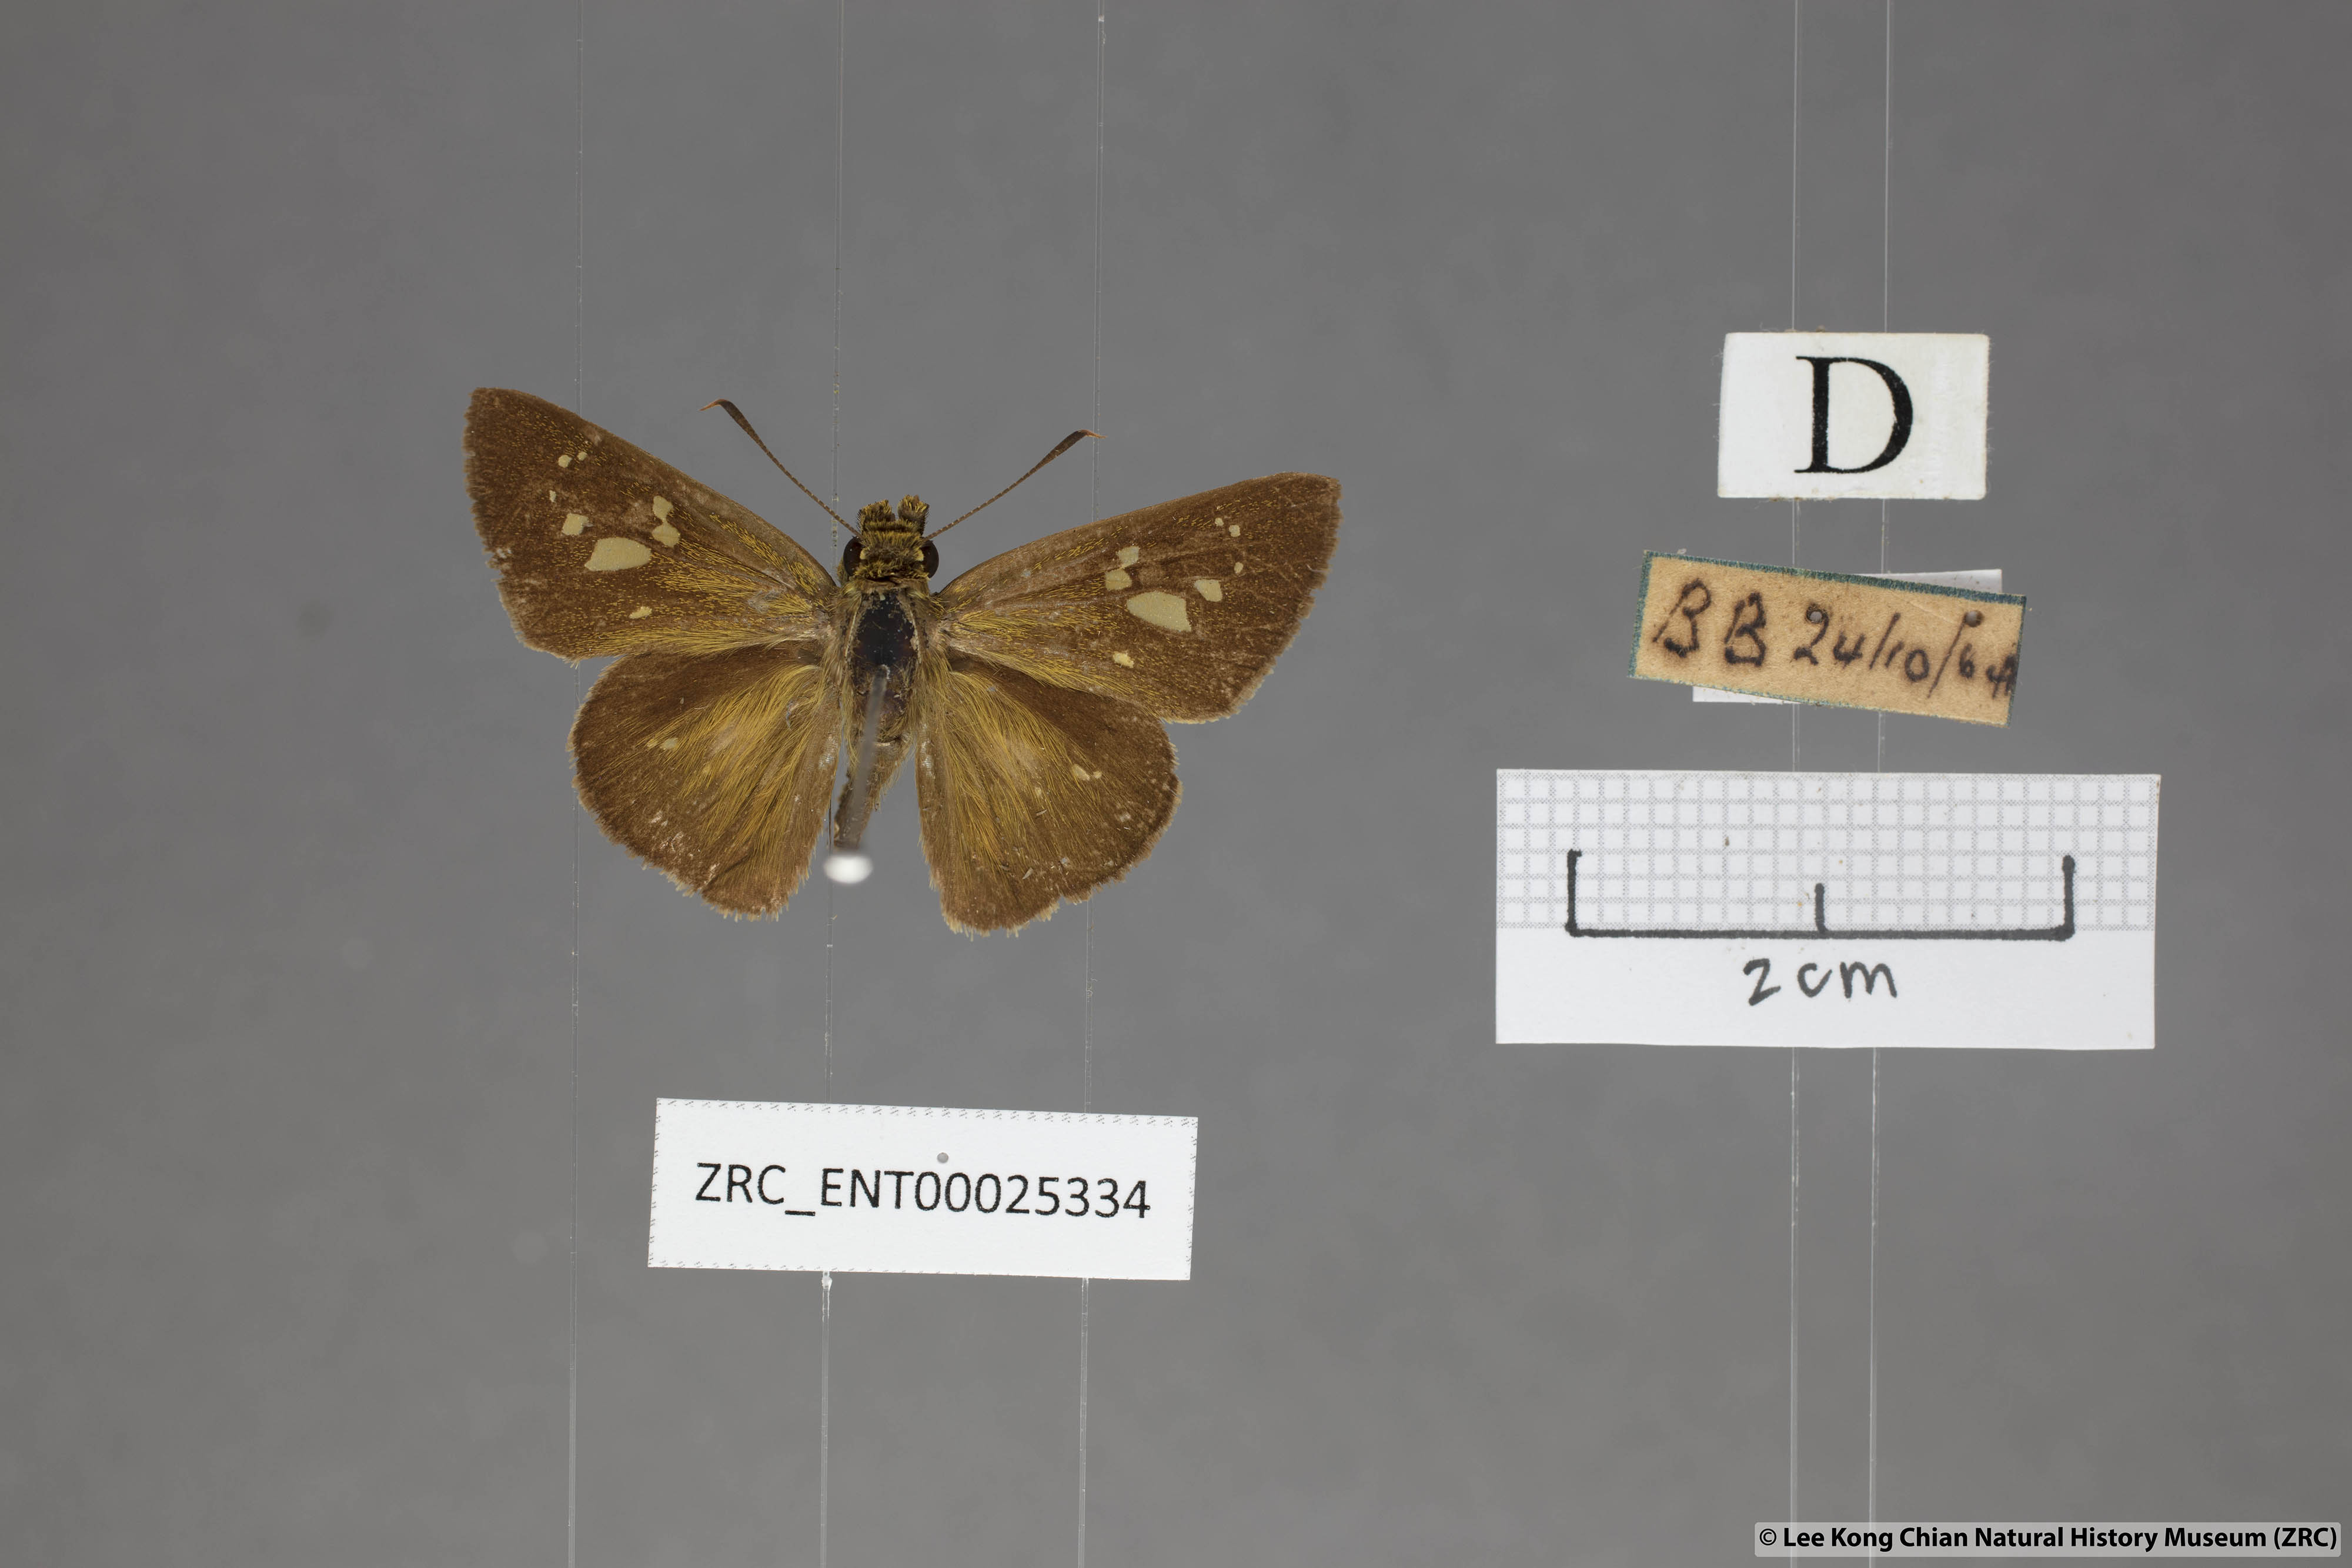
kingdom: Animalia
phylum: Arthropoda
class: Insecta
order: Lepidoptera
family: Hesperiidae
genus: Polytremis
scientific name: Polytremis lubricans
